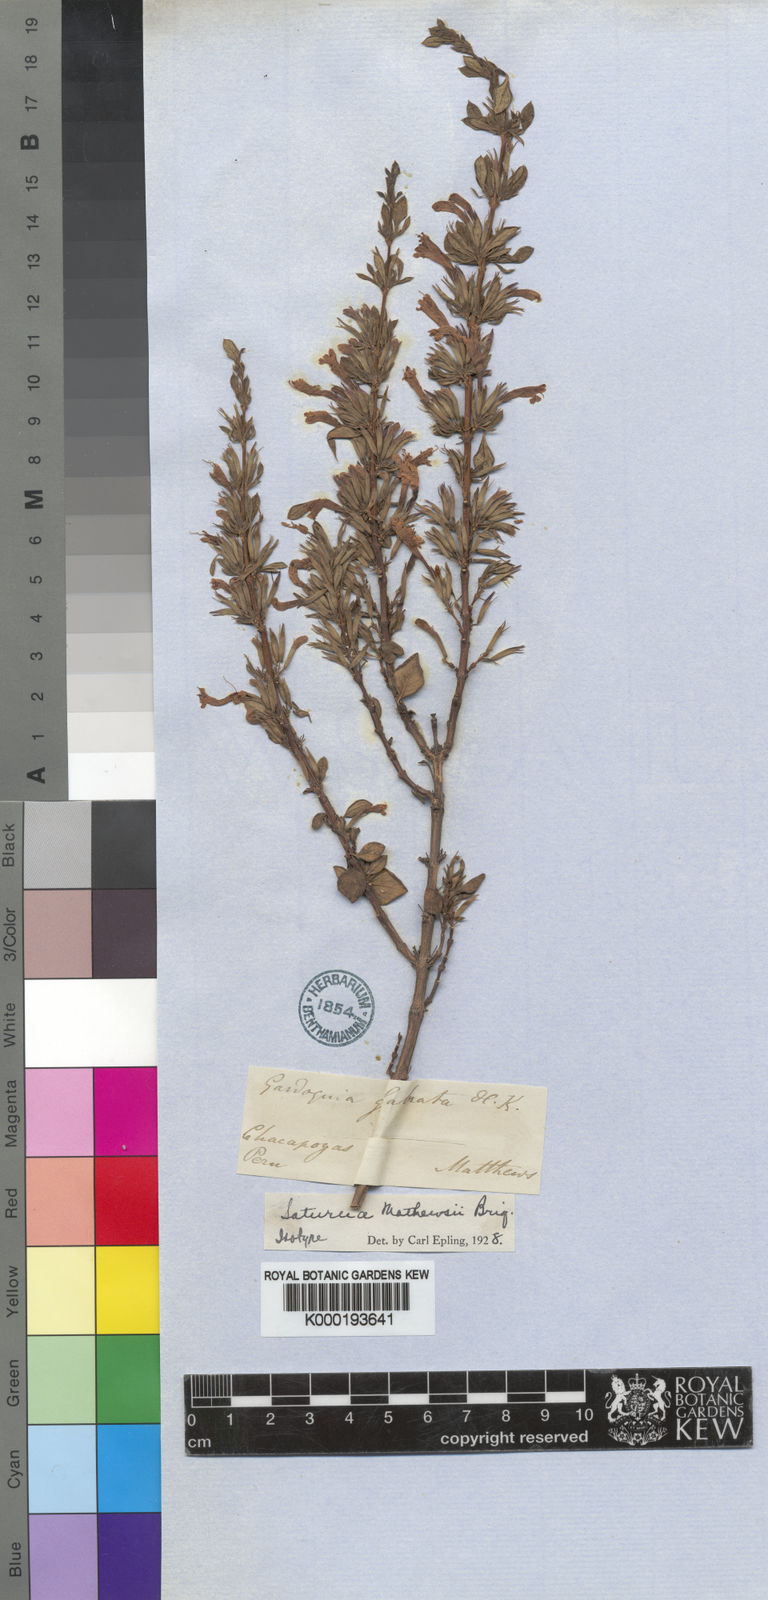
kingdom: Plantae
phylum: Tracheophyta
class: Magnoliopsida
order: Lamiales
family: Lamiaceae
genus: Clinopodium
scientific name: Clinopodium matthewsii
